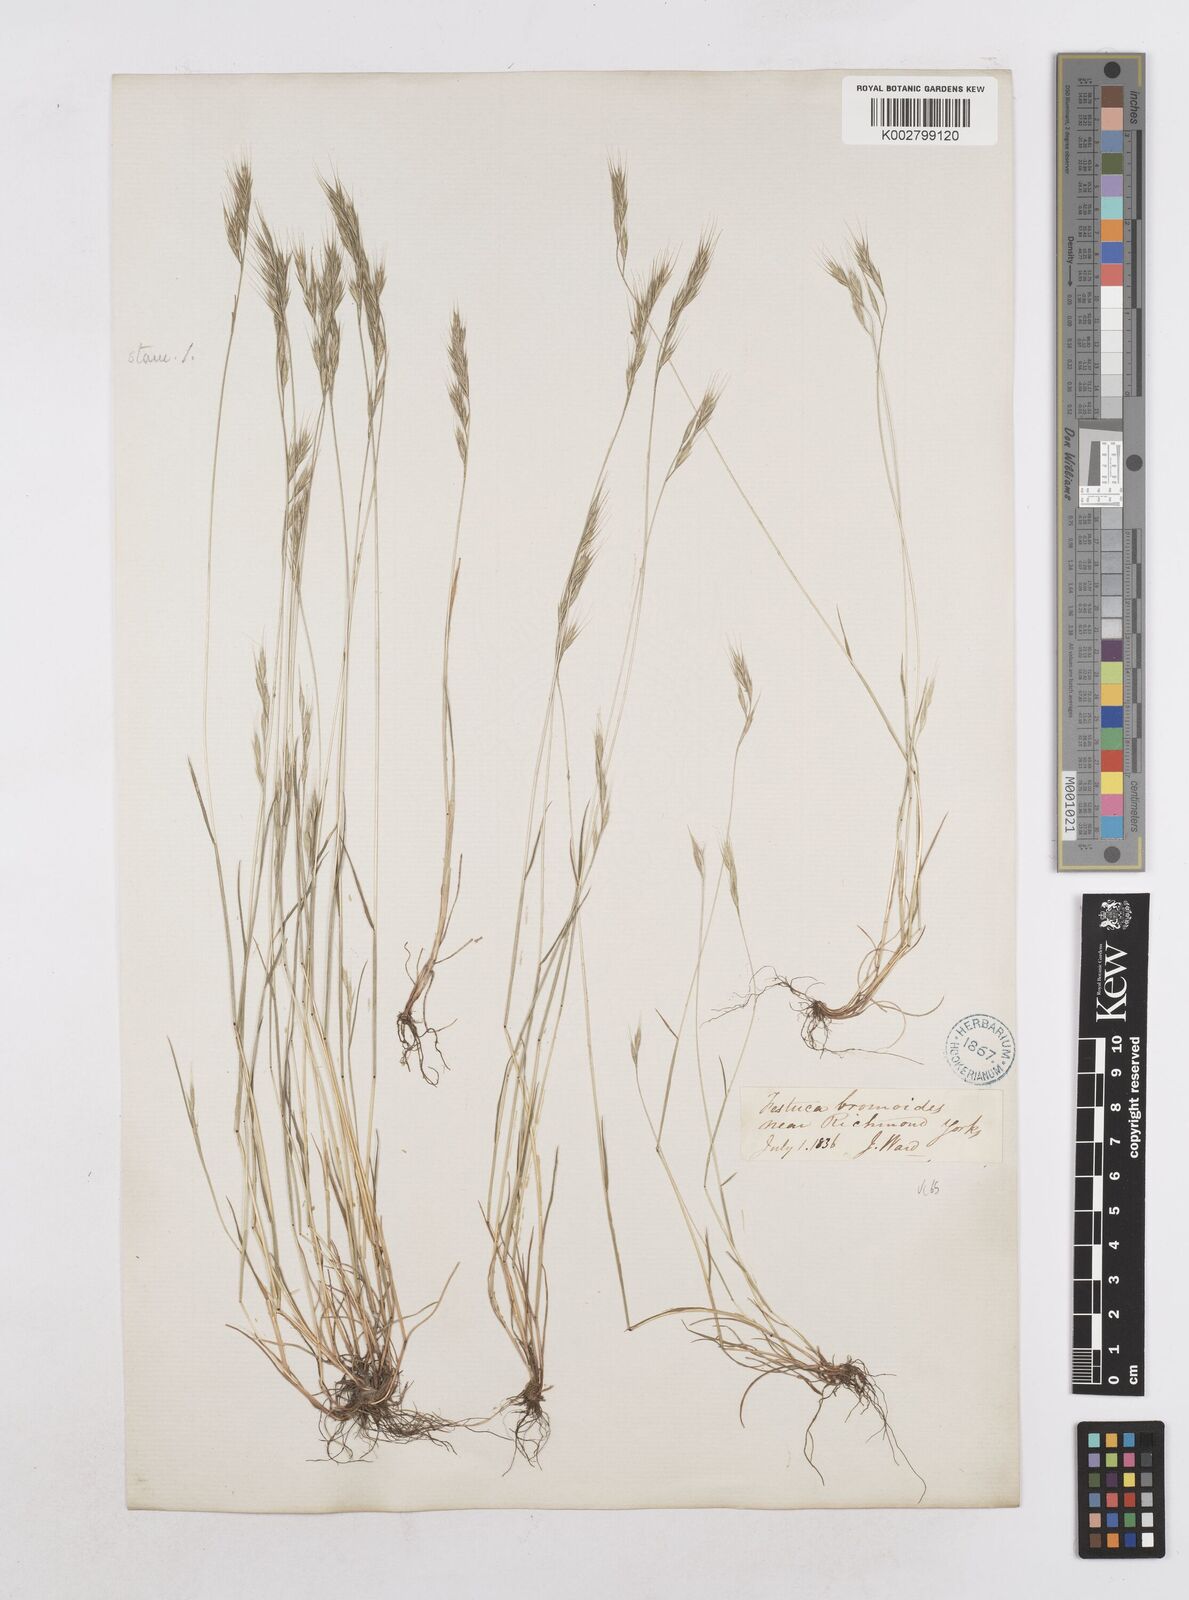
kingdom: Plantae
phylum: Tracheophyta
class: Liliopsida
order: Poales
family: Poaceae
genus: Festuca
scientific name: Festuca bromoides
